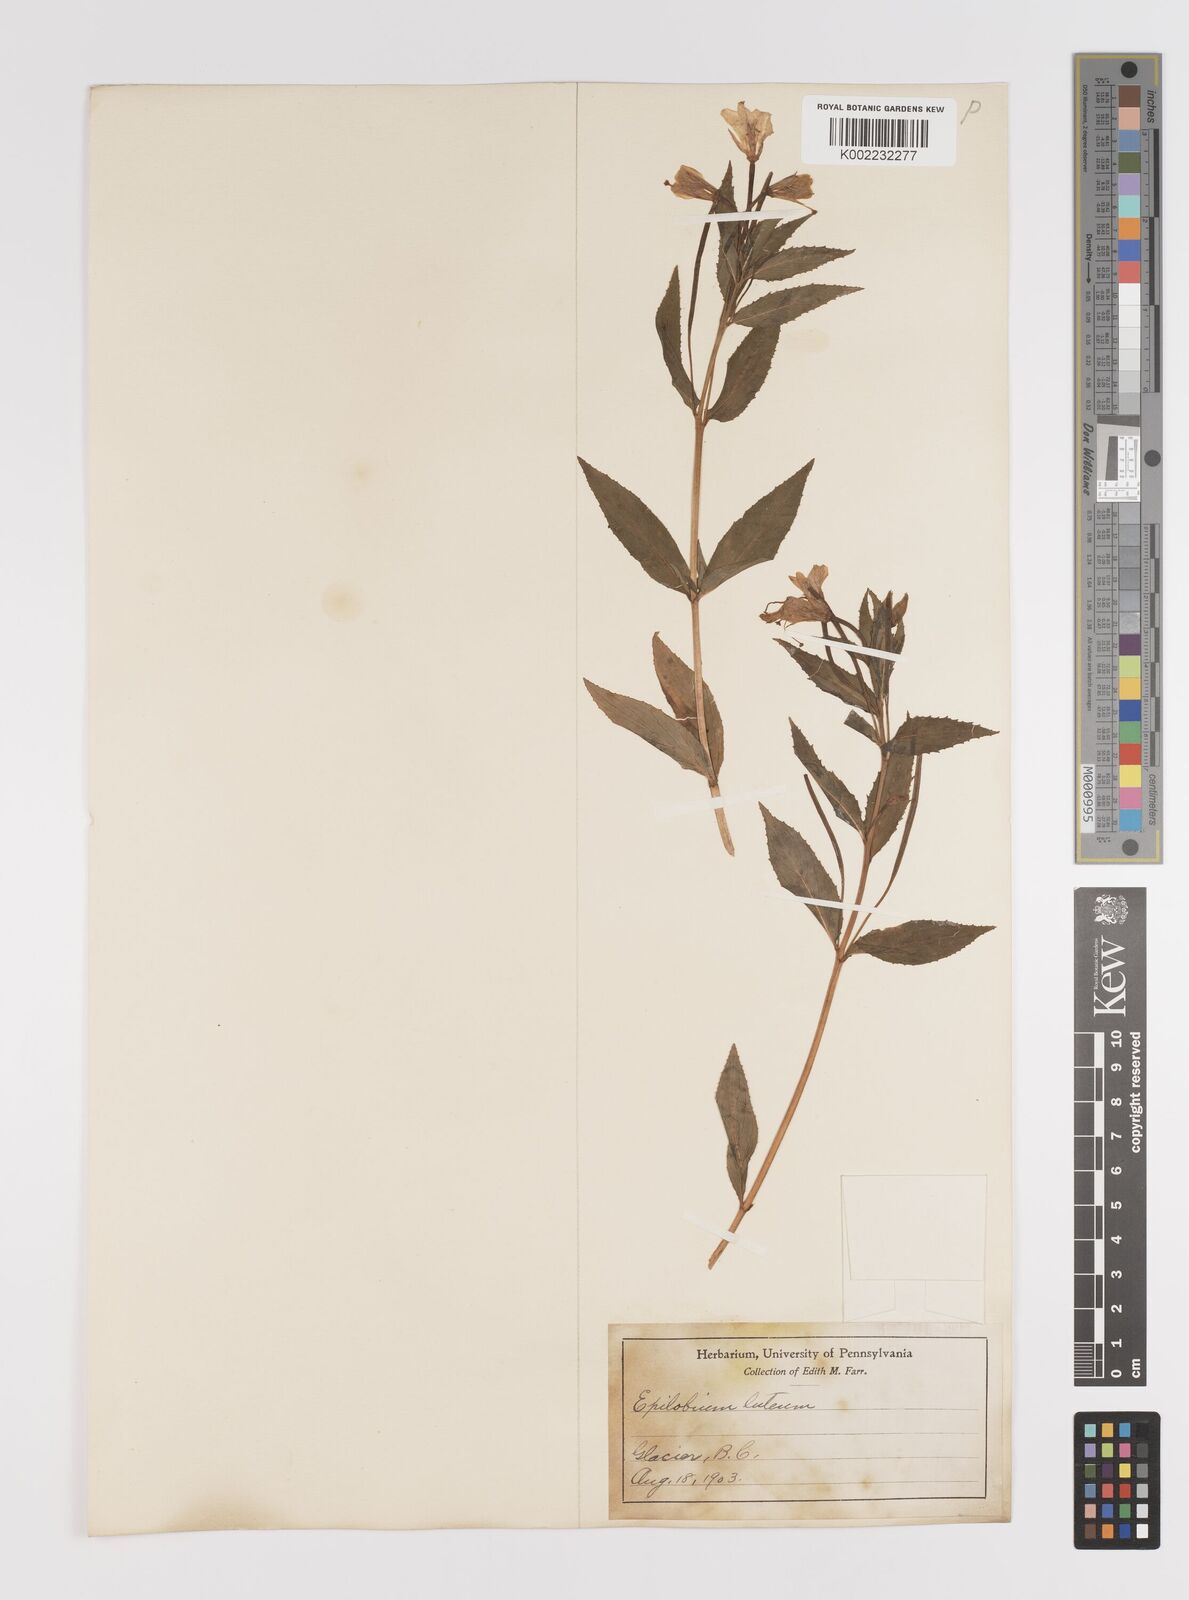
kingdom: Plantae
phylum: Tracheophyta
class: Magnoliopsida
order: Myrtales
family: Onagraceae
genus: Epilobium
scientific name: Epilobium luteum
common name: Yellow willowherb
